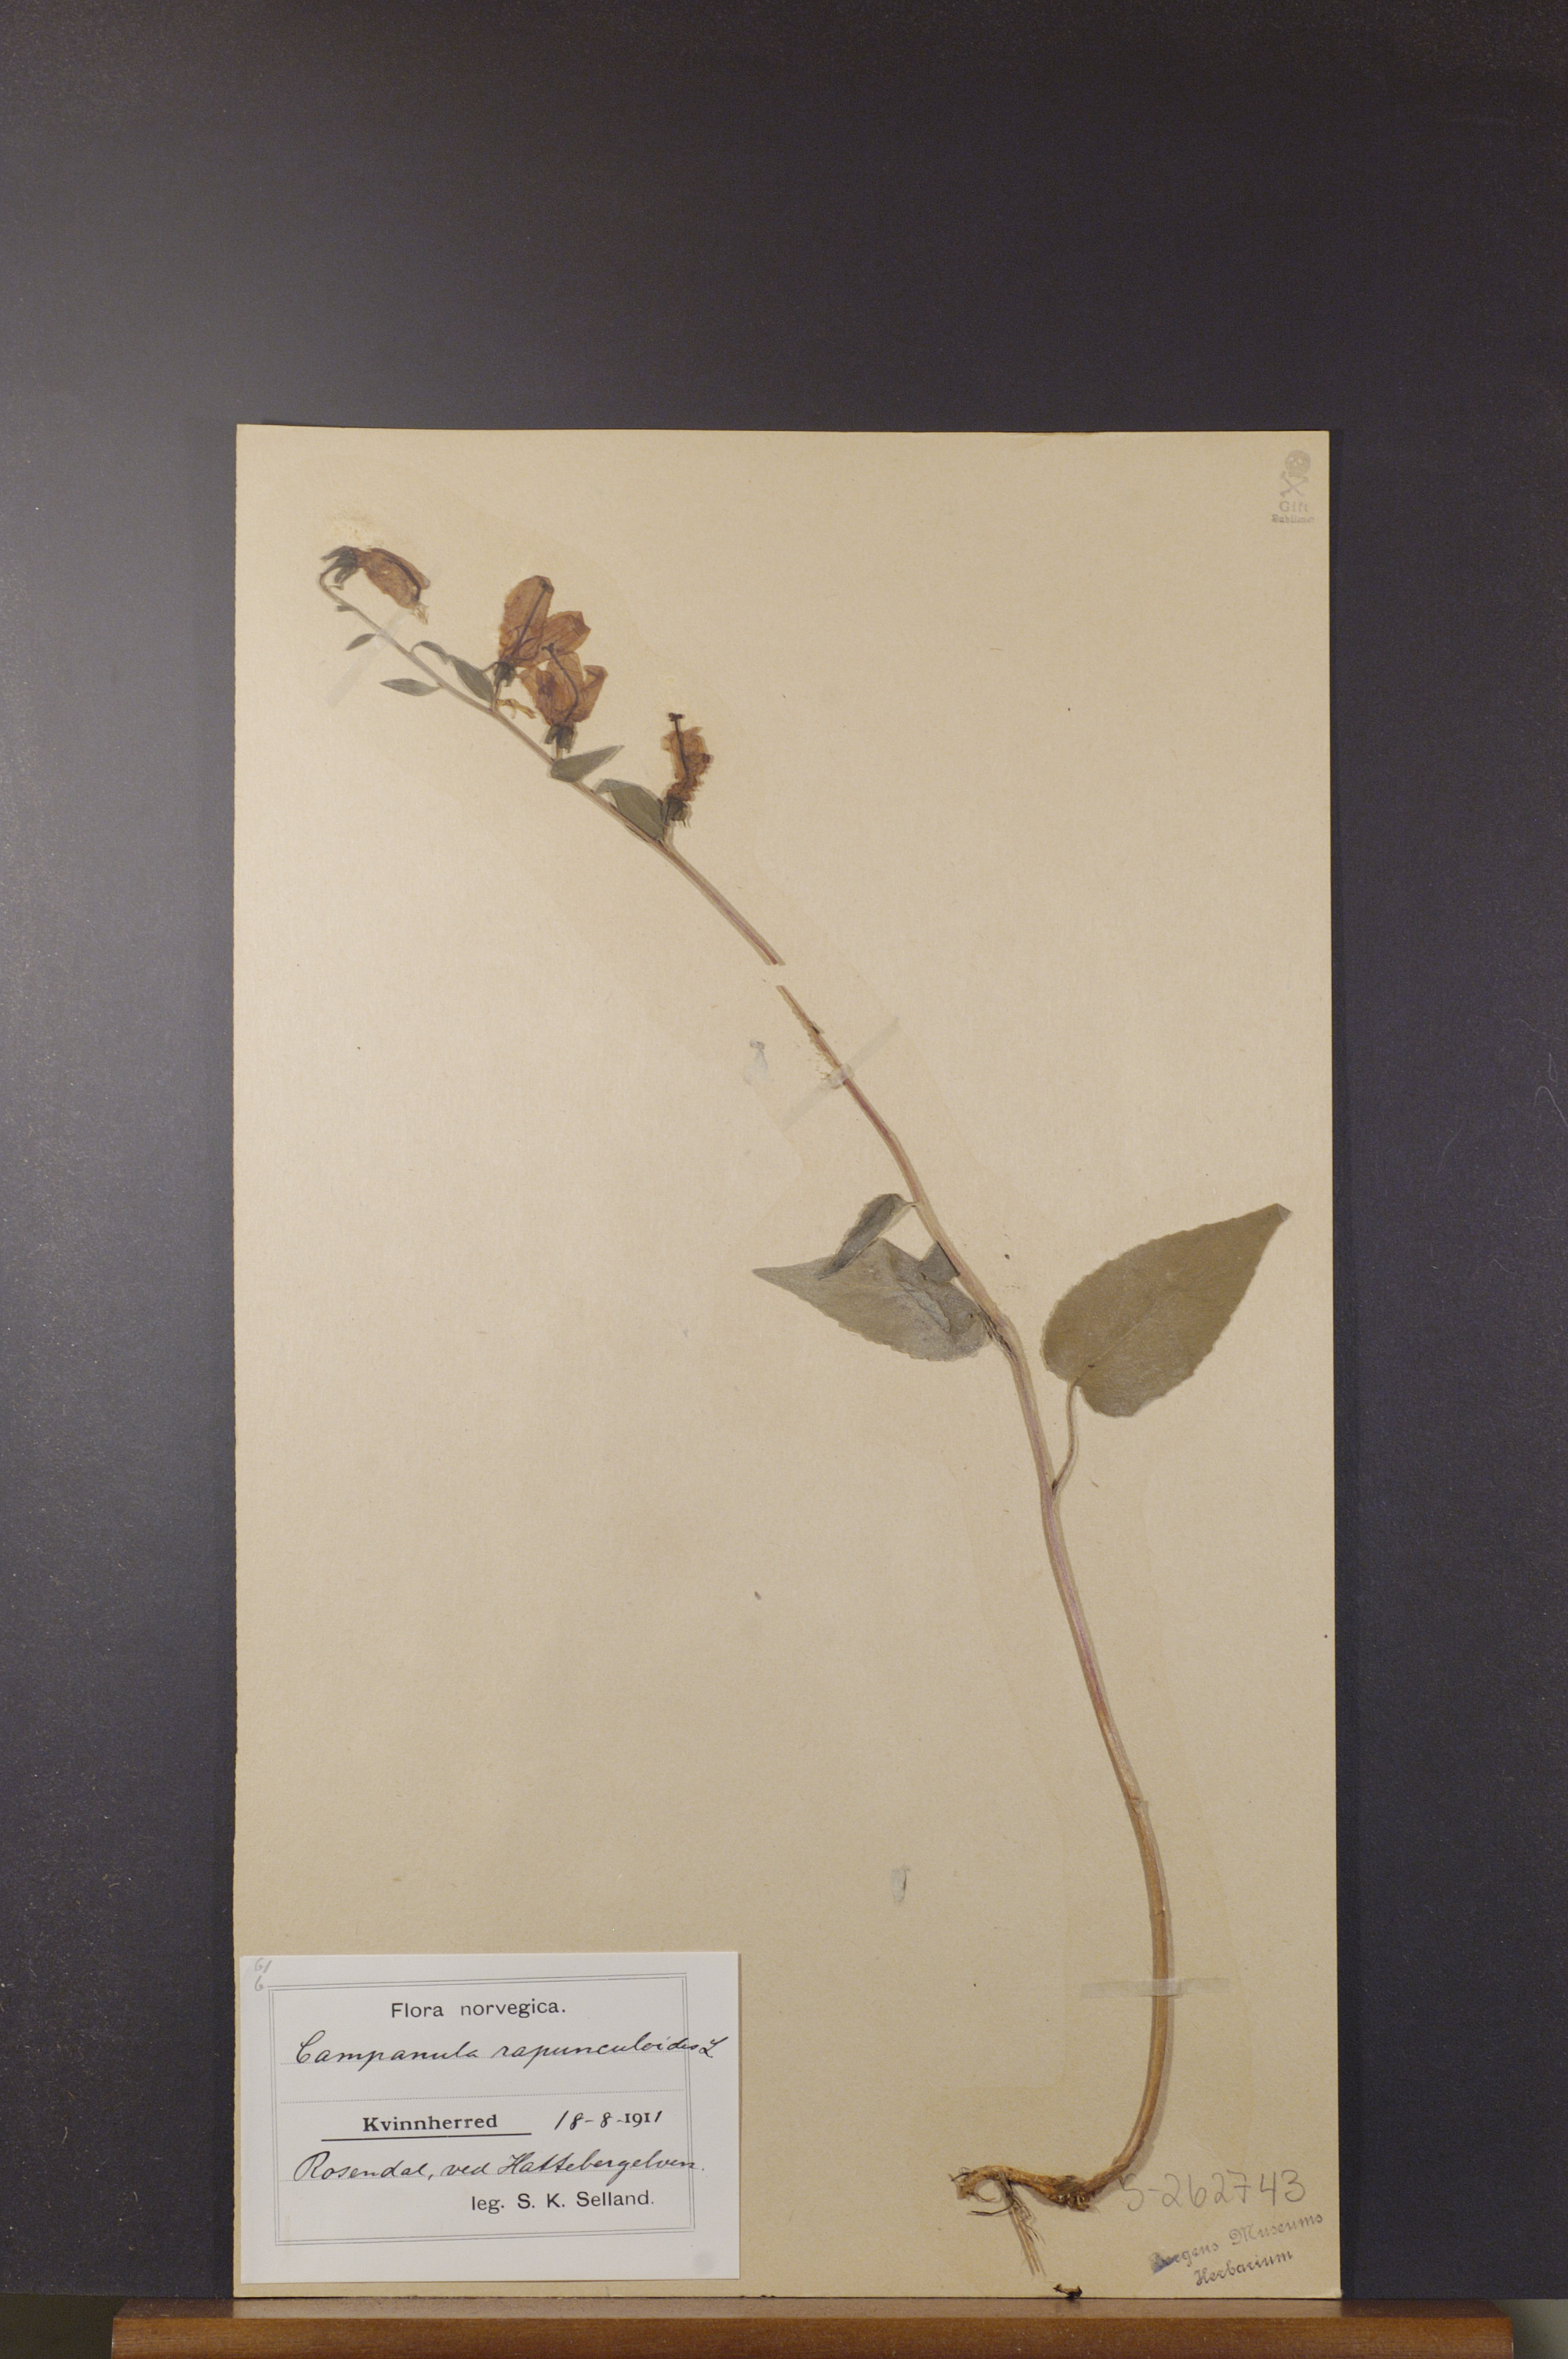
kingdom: Plantae
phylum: Tracheophyta
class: Magnoliopsida
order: Asterales
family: Campanulaceae
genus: Campanula
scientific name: Campanula rapunculoides
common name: Creeping bellflower
